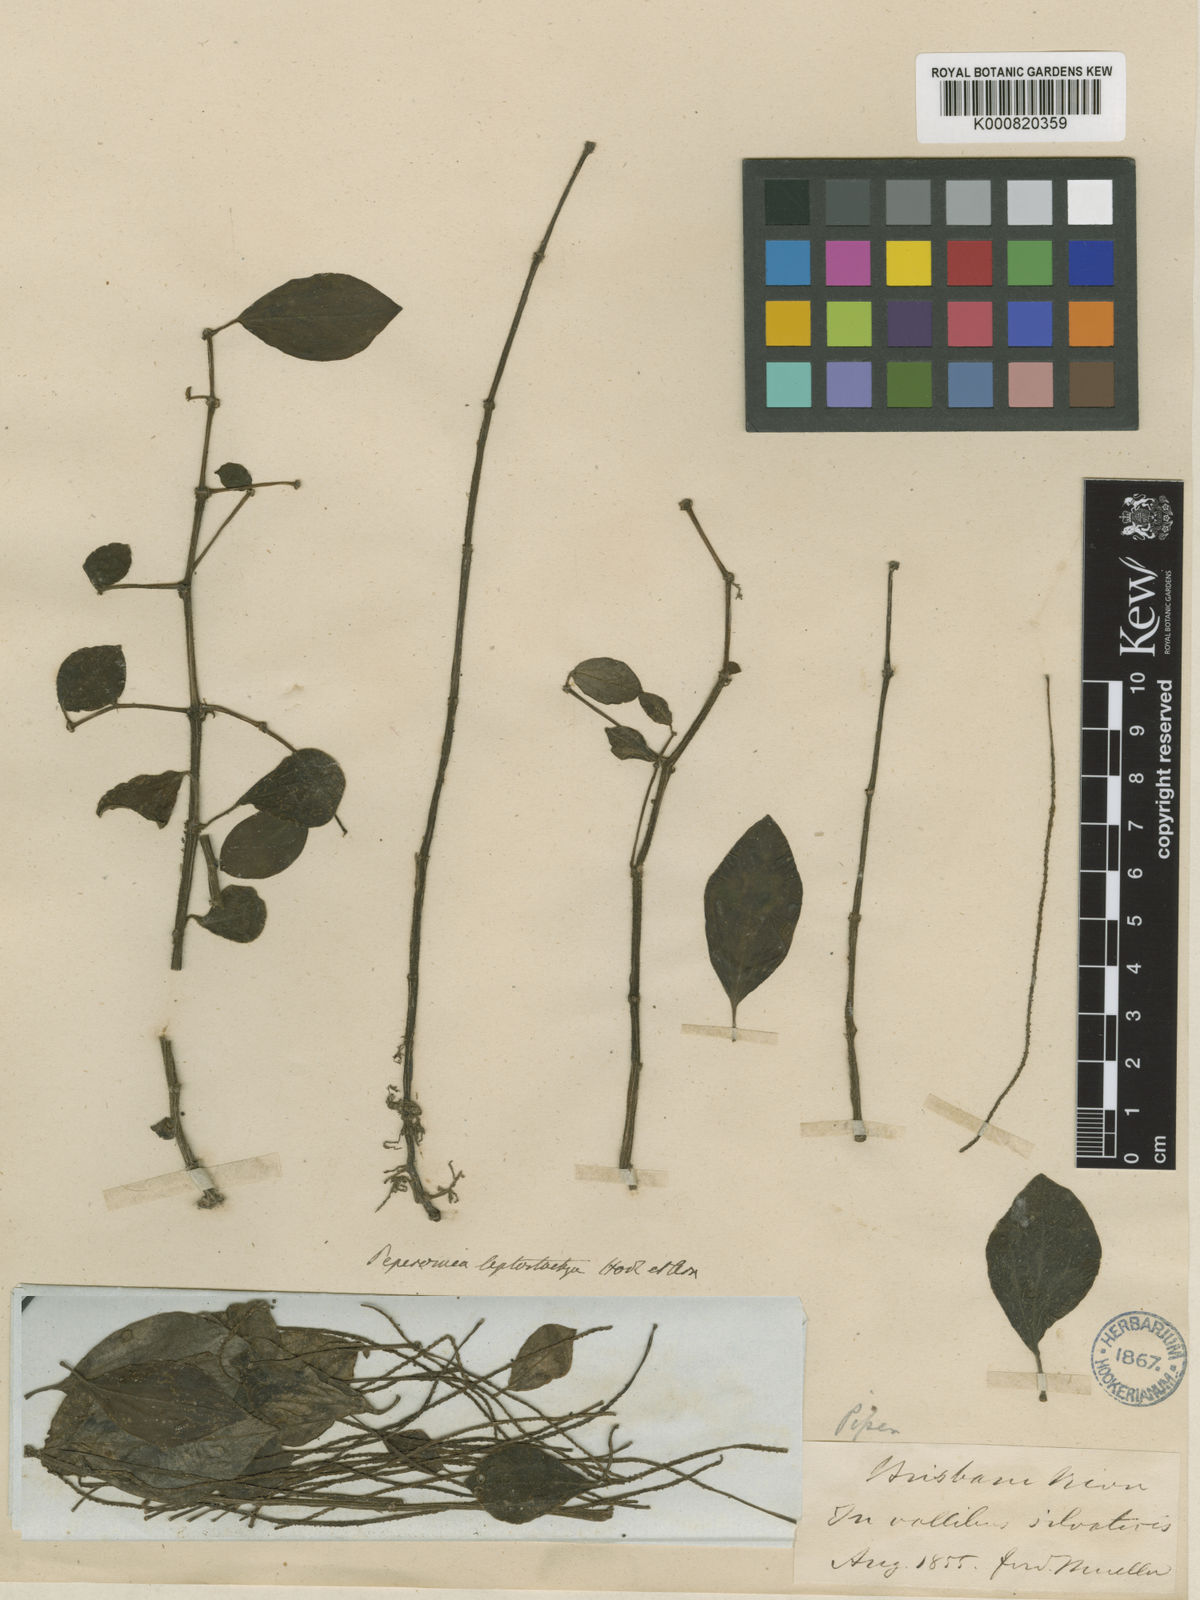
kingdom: Plantae
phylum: Tracheophyta
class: Magnoliopsida
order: Piperales
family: Piperaceae
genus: Peperomia
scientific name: Peperomia leptostachya
